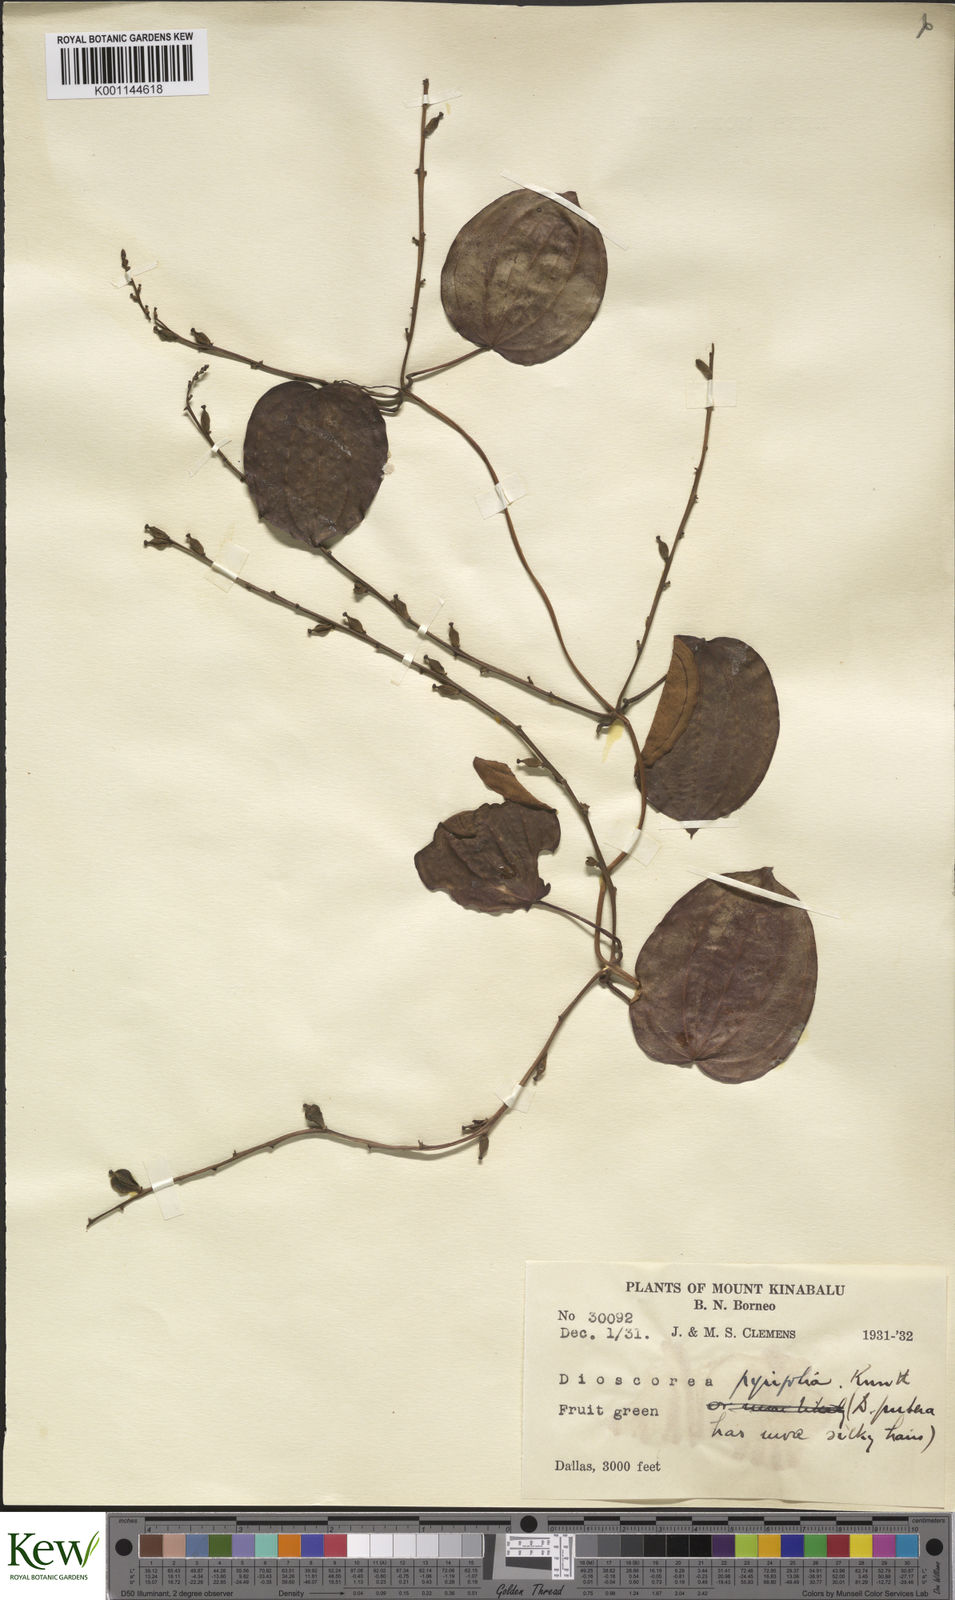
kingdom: Plantae
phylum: Tracheophyta
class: Liliopsida
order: Dioscoreales
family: Dioscoreaceae
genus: Dioscorea
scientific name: Dioscorea pyrifolia
